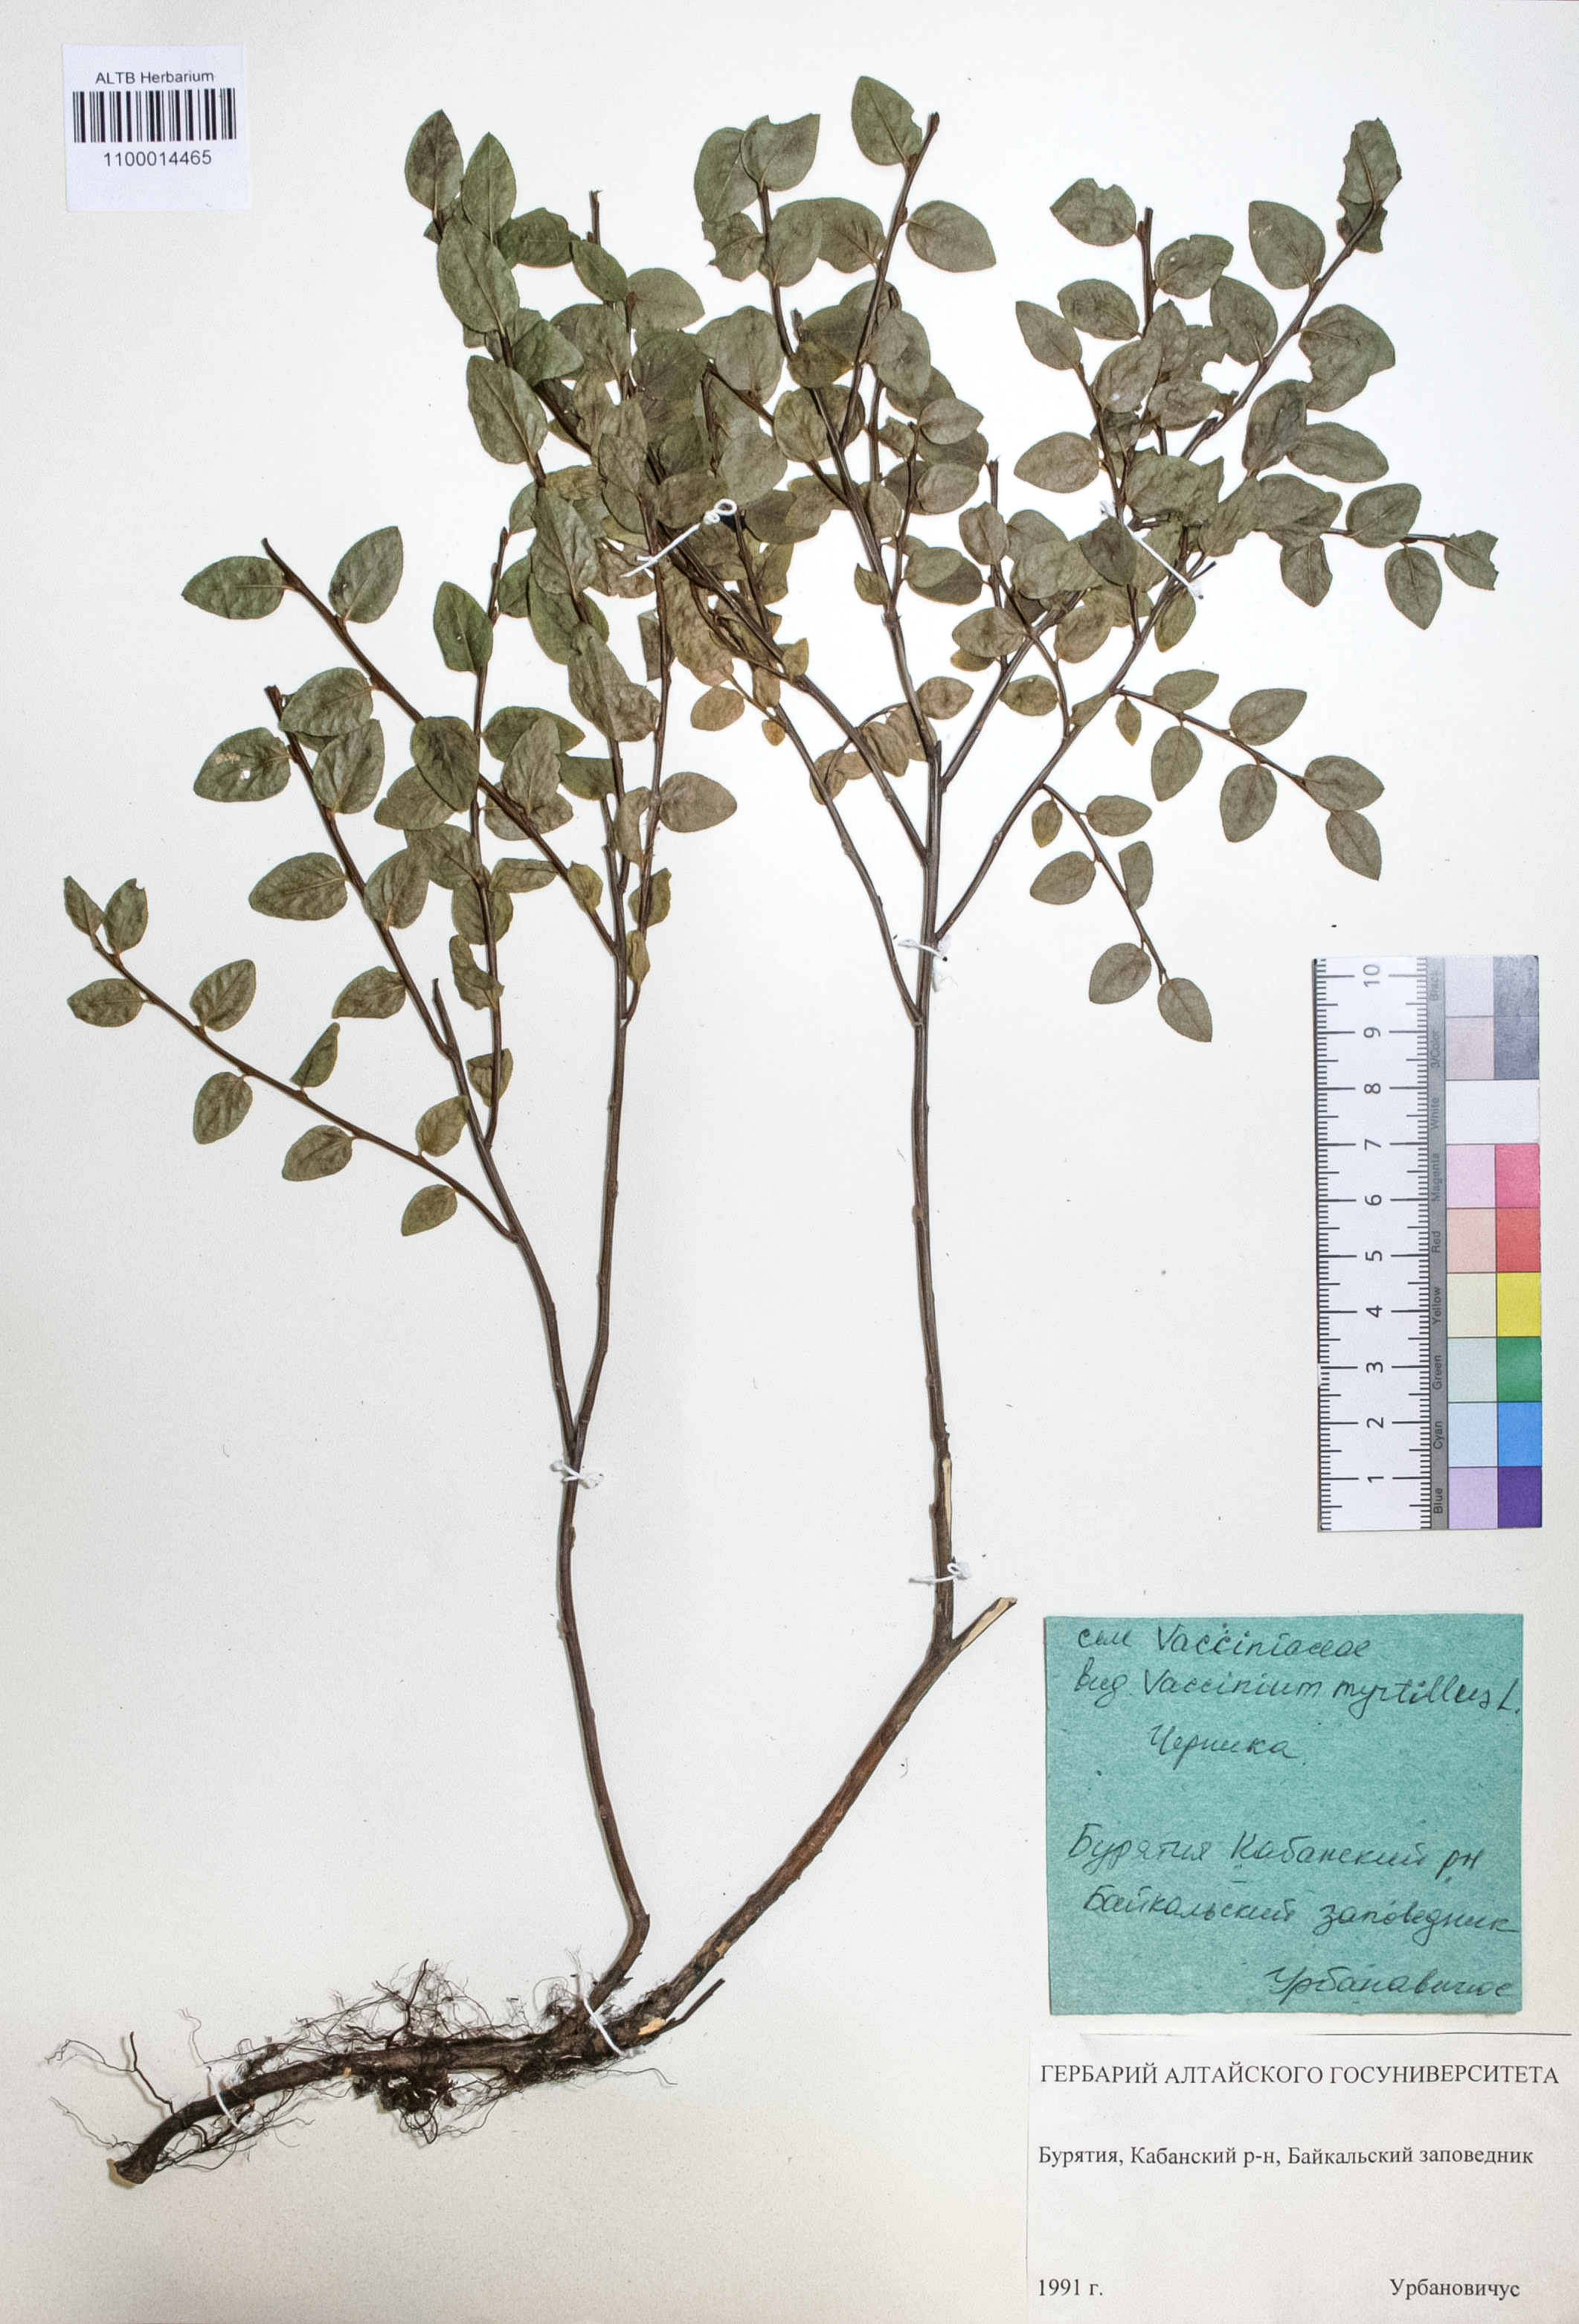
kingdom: Plantae
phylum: Tracheophyta
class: Magnoliopsida
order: Ericales
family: Ericaceae
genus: Vaccinium
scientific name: Vaccinium myrtillus
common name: Bilberry
